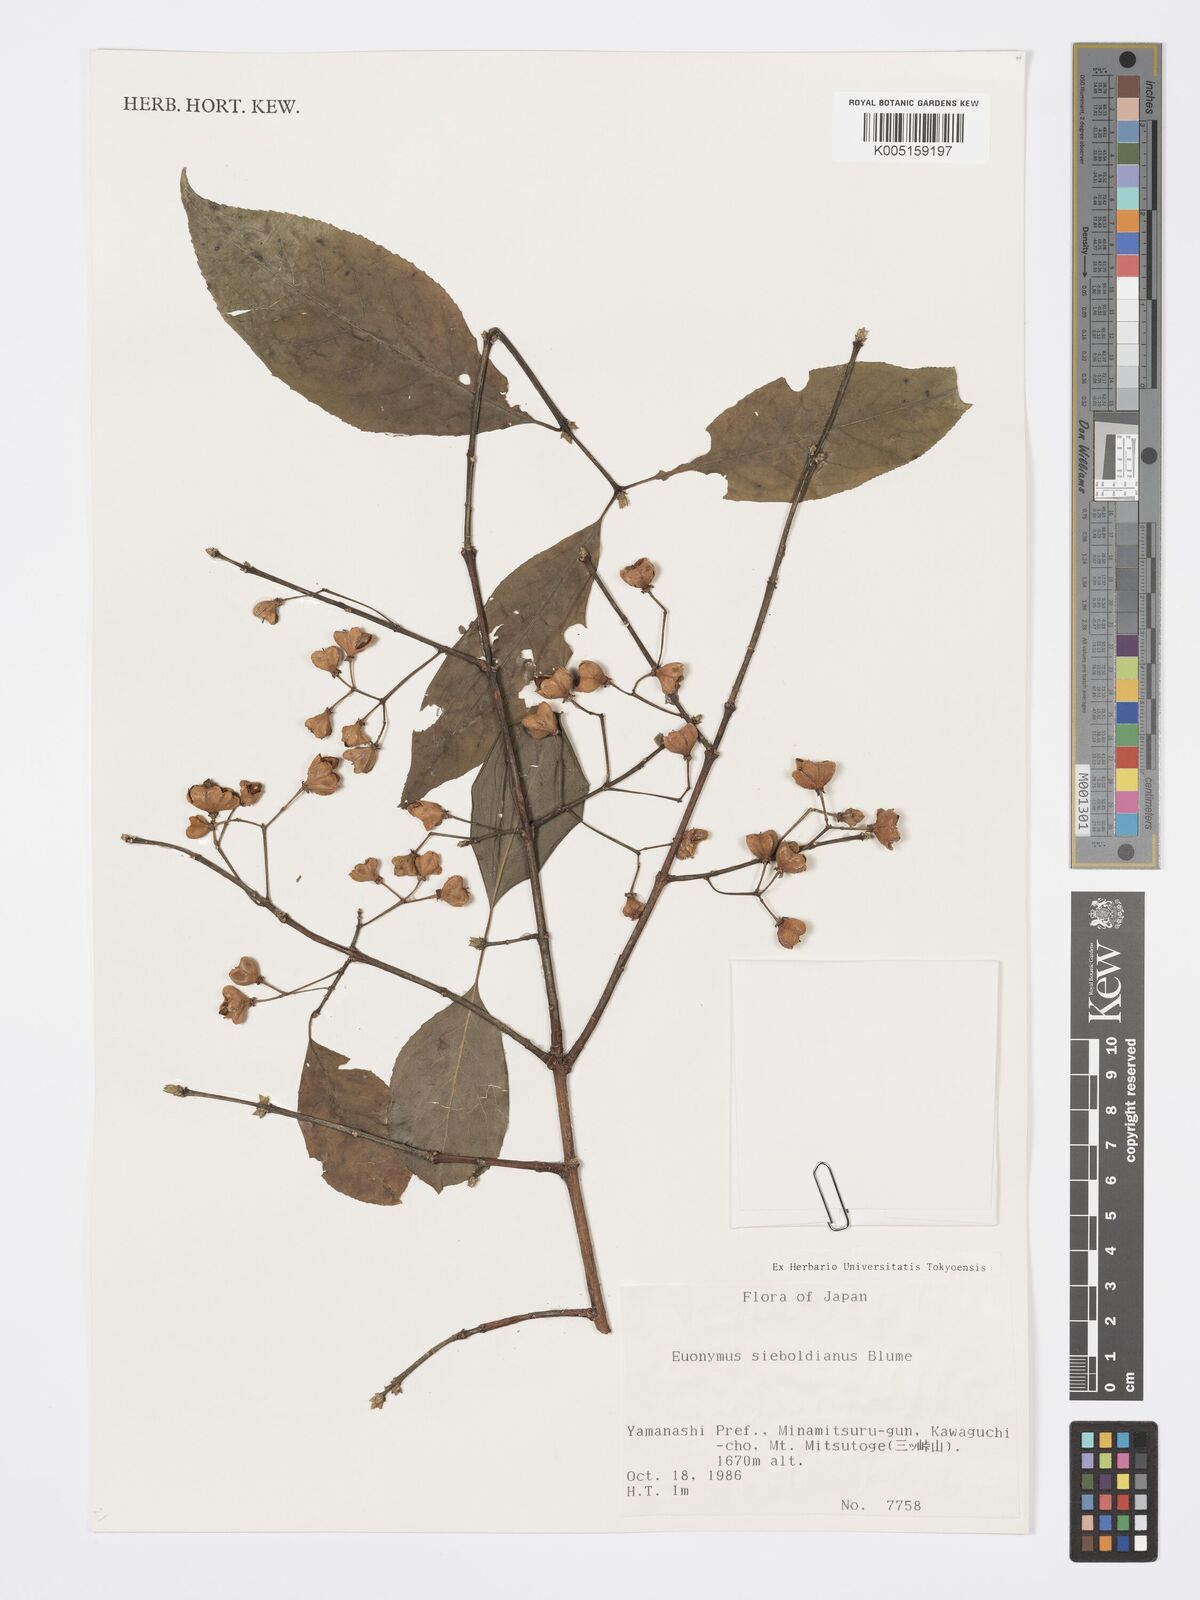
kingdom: Plantae
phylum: Tracheophyta
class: Magnoliopsida
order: Celastrales
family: Celastraceae
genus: Euonymus
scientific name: Euonymus hamiltonianus
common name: Hamilton's spindletree
